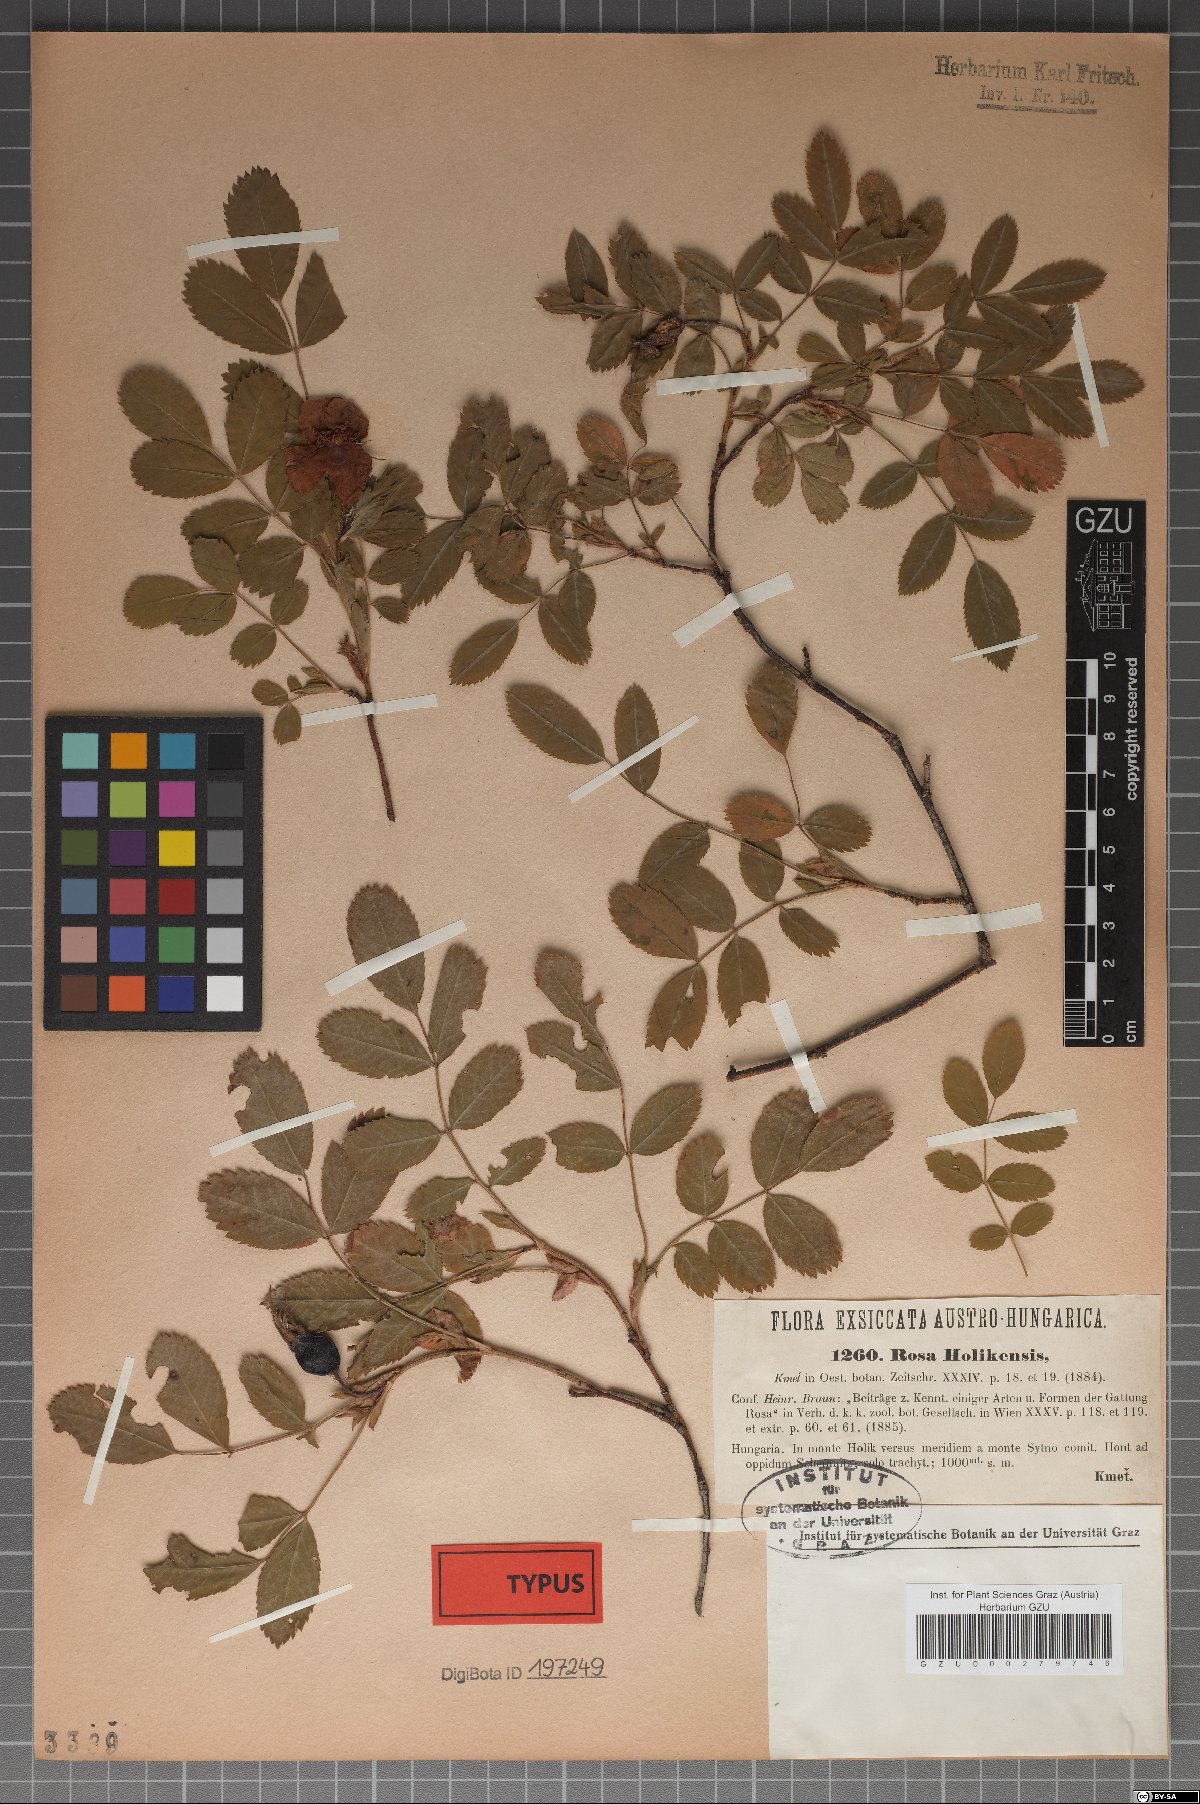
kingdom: Plantae
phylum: Tracheophyta
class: Magnoliopsida
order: Rosales
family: Rosaceae
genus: Rosa
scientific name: Rosa holikensis
